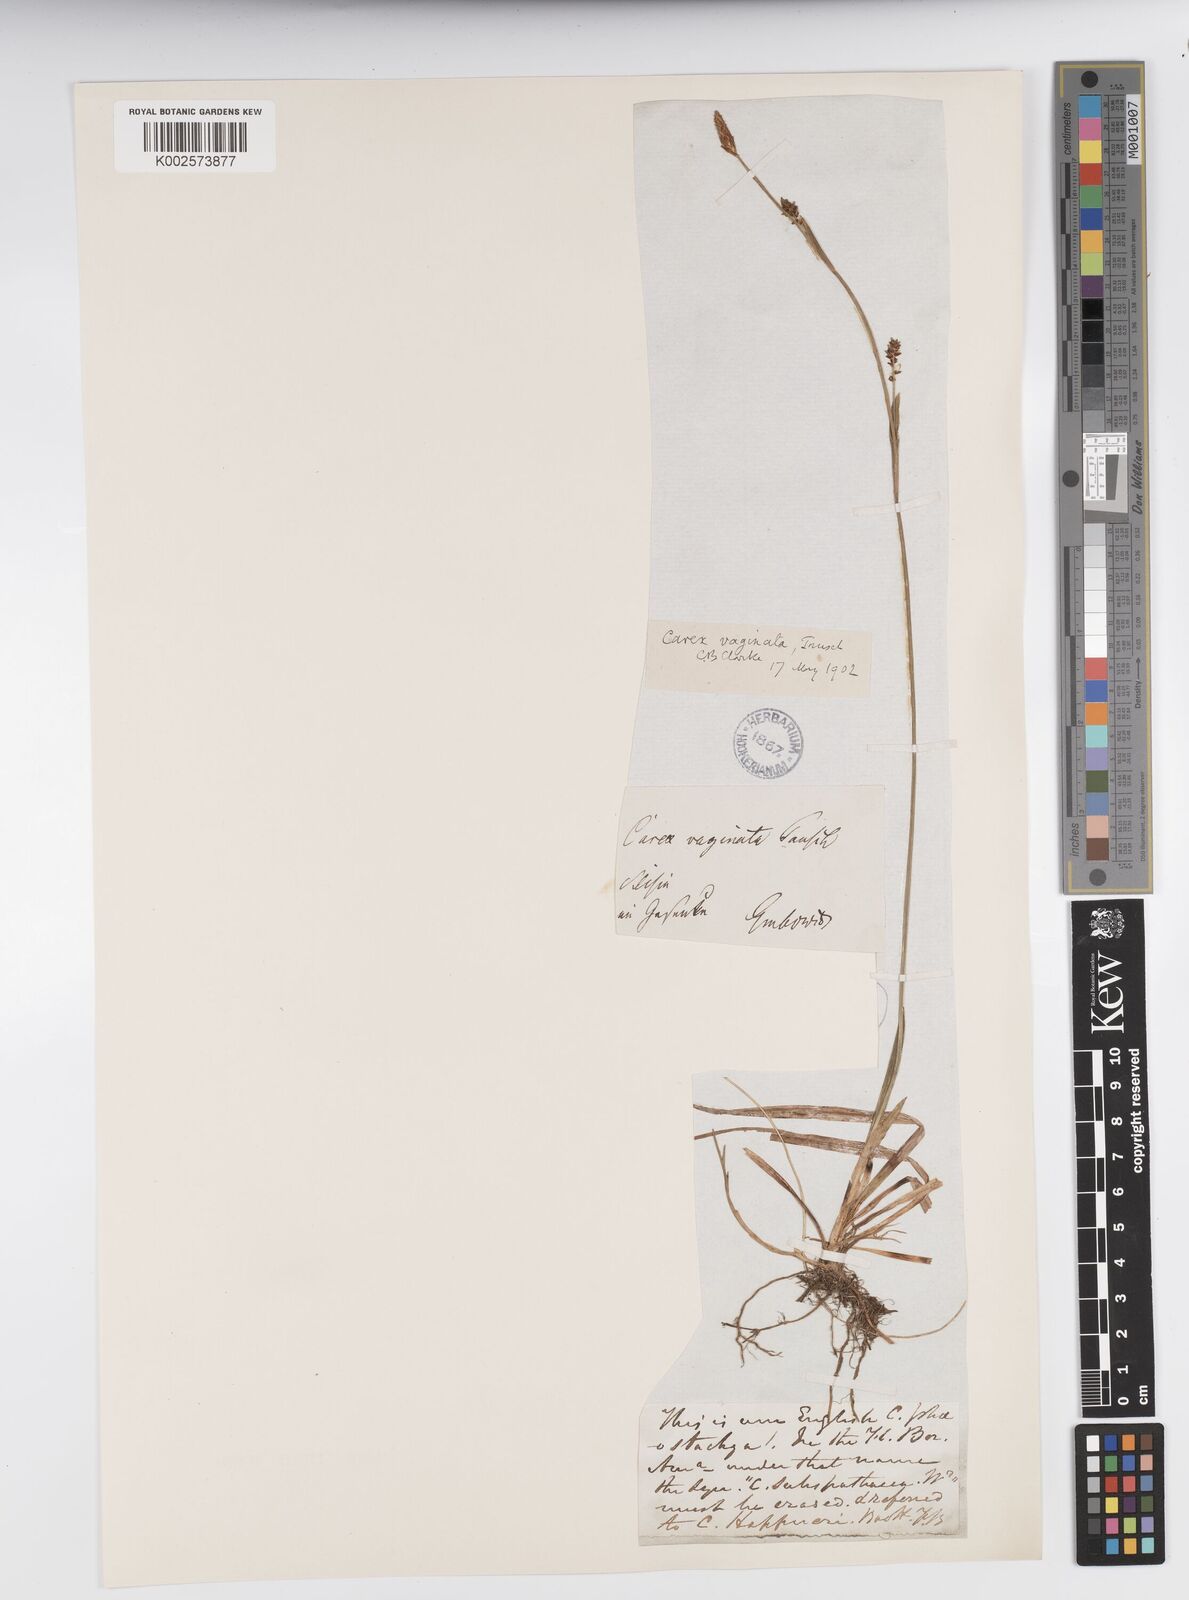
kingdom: Plantae
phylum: Tracheophyta
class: Liliopsida
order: Poales
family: Cyperaceae
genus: Carex
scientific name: Carex vaginata
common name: Sheathed sedge
